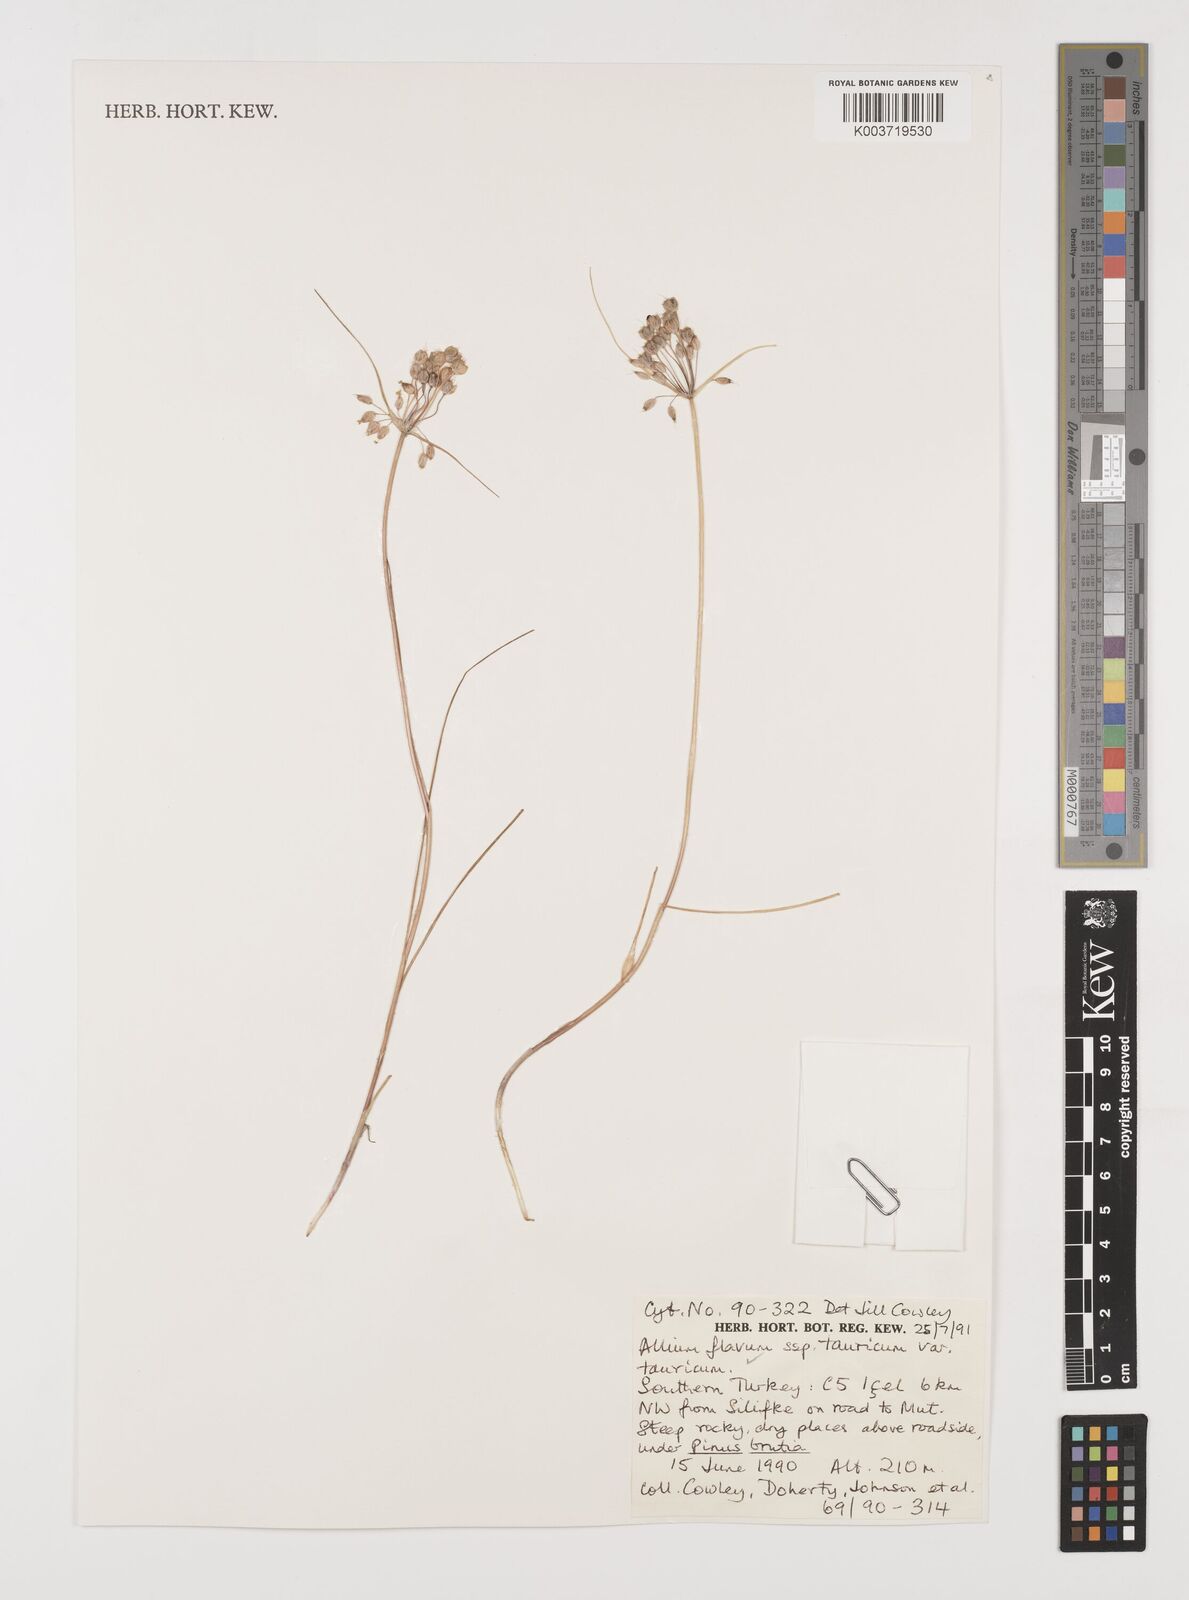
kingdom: Plantae
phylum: Tracheophyta
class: Liliopsida
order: Asparagales
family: Amaryllidaceae
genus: Allium
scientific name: Allium flavum
